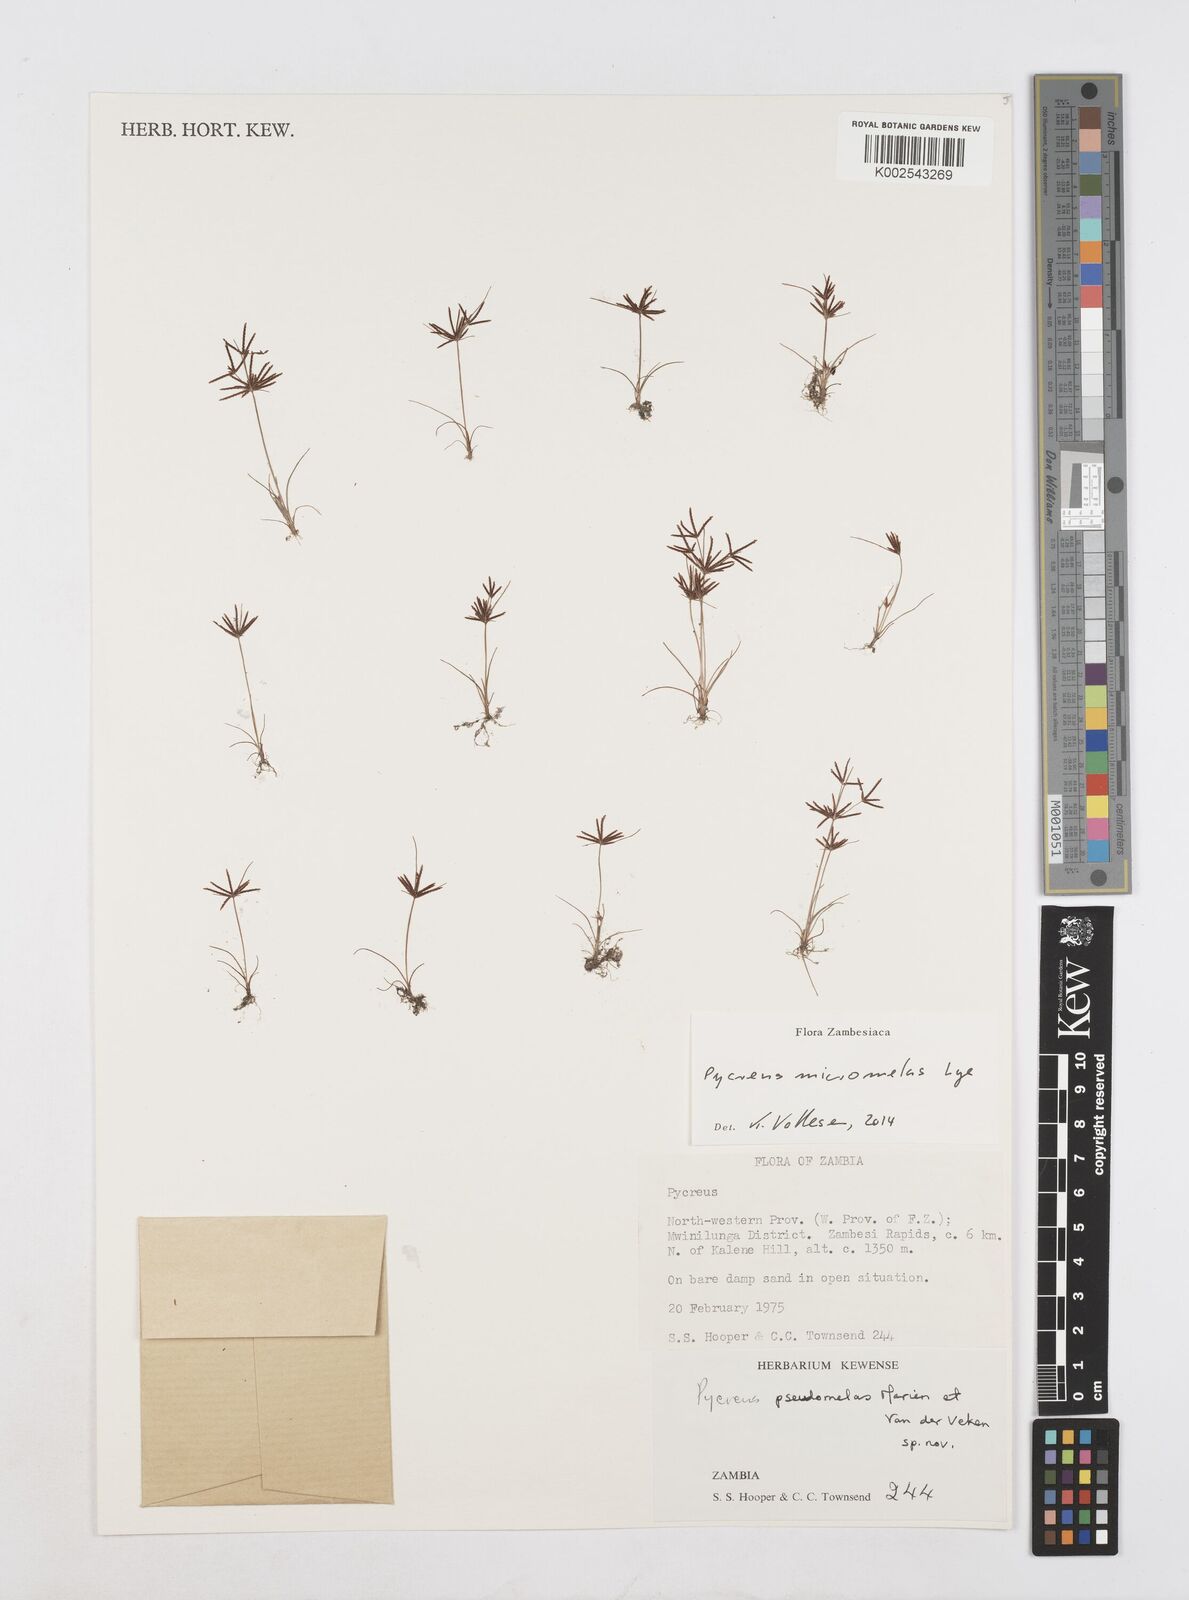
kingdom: Plantae
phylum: Tracheophyta
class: Liliopsida
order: Poales
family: Cyperaceae
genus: Cyperus
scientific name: Cyperus micromelas
